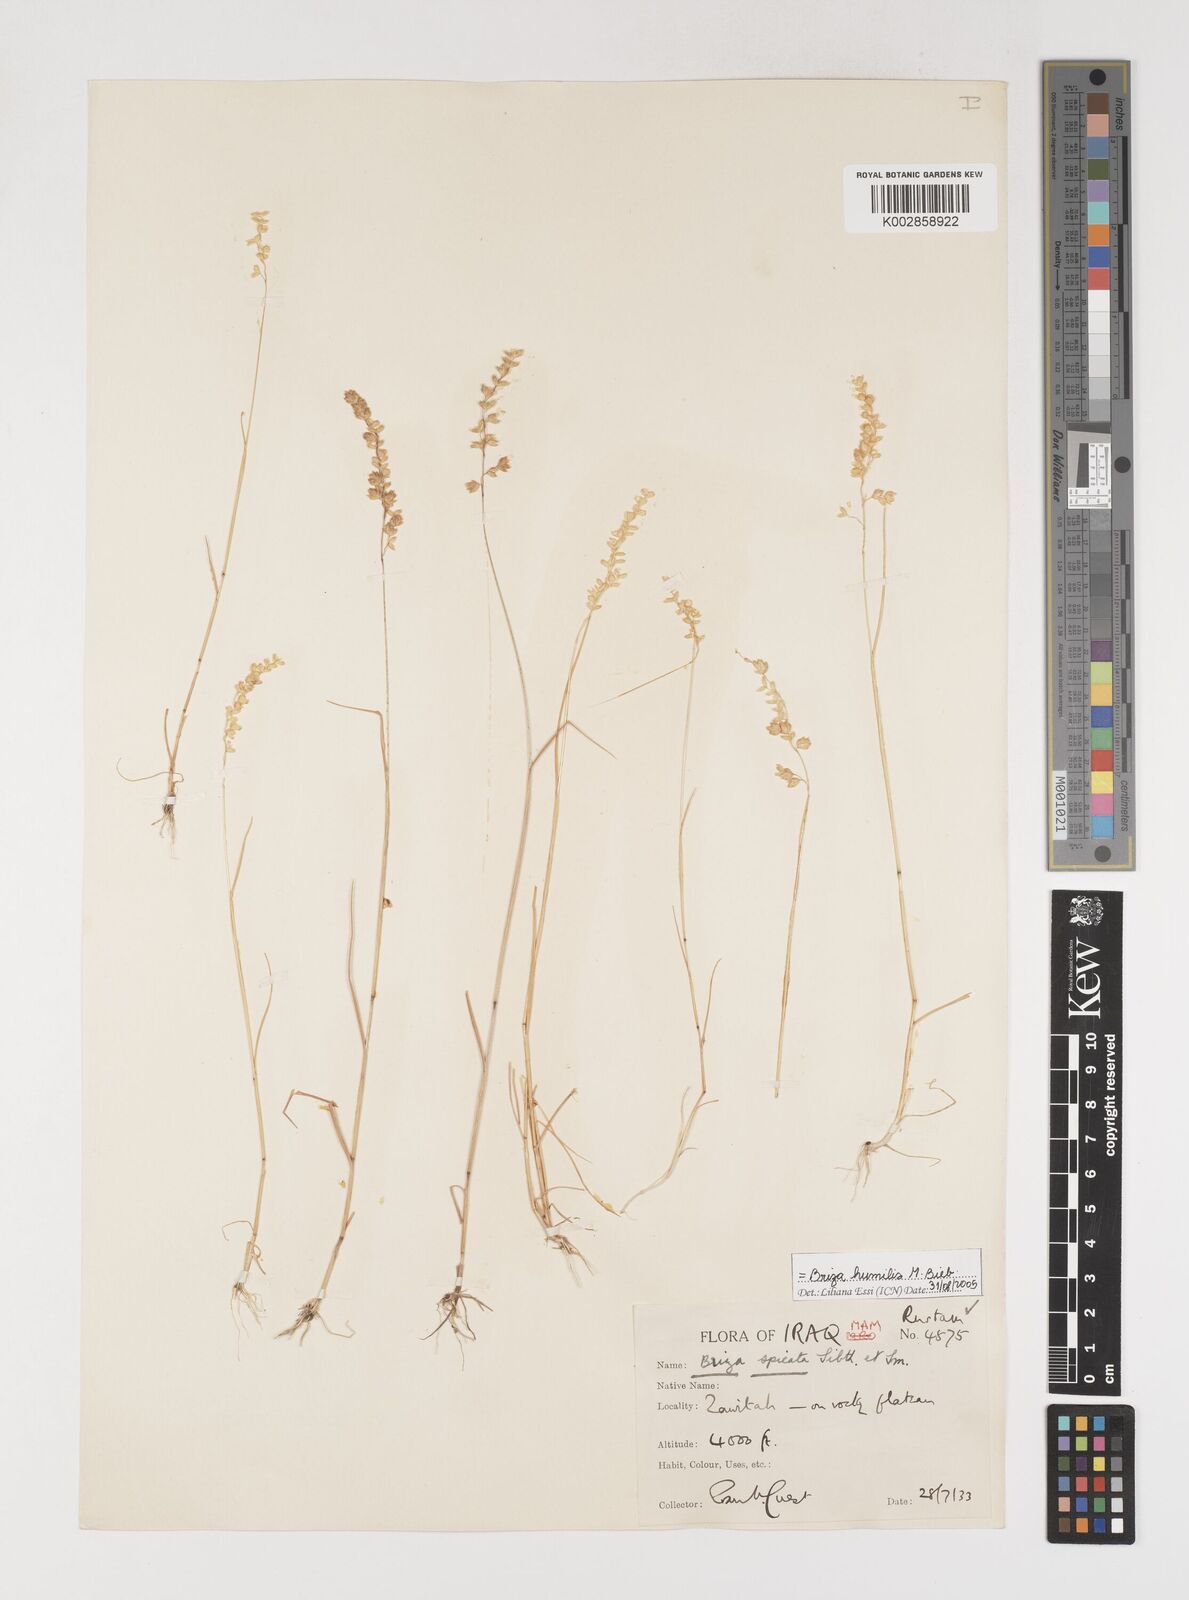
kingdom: Plantae
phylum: Tracheophyta
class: Liliopsida
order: Poales
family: Poaceae
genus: Briza
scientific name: Briza humilis
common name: Spiked quaking grass
